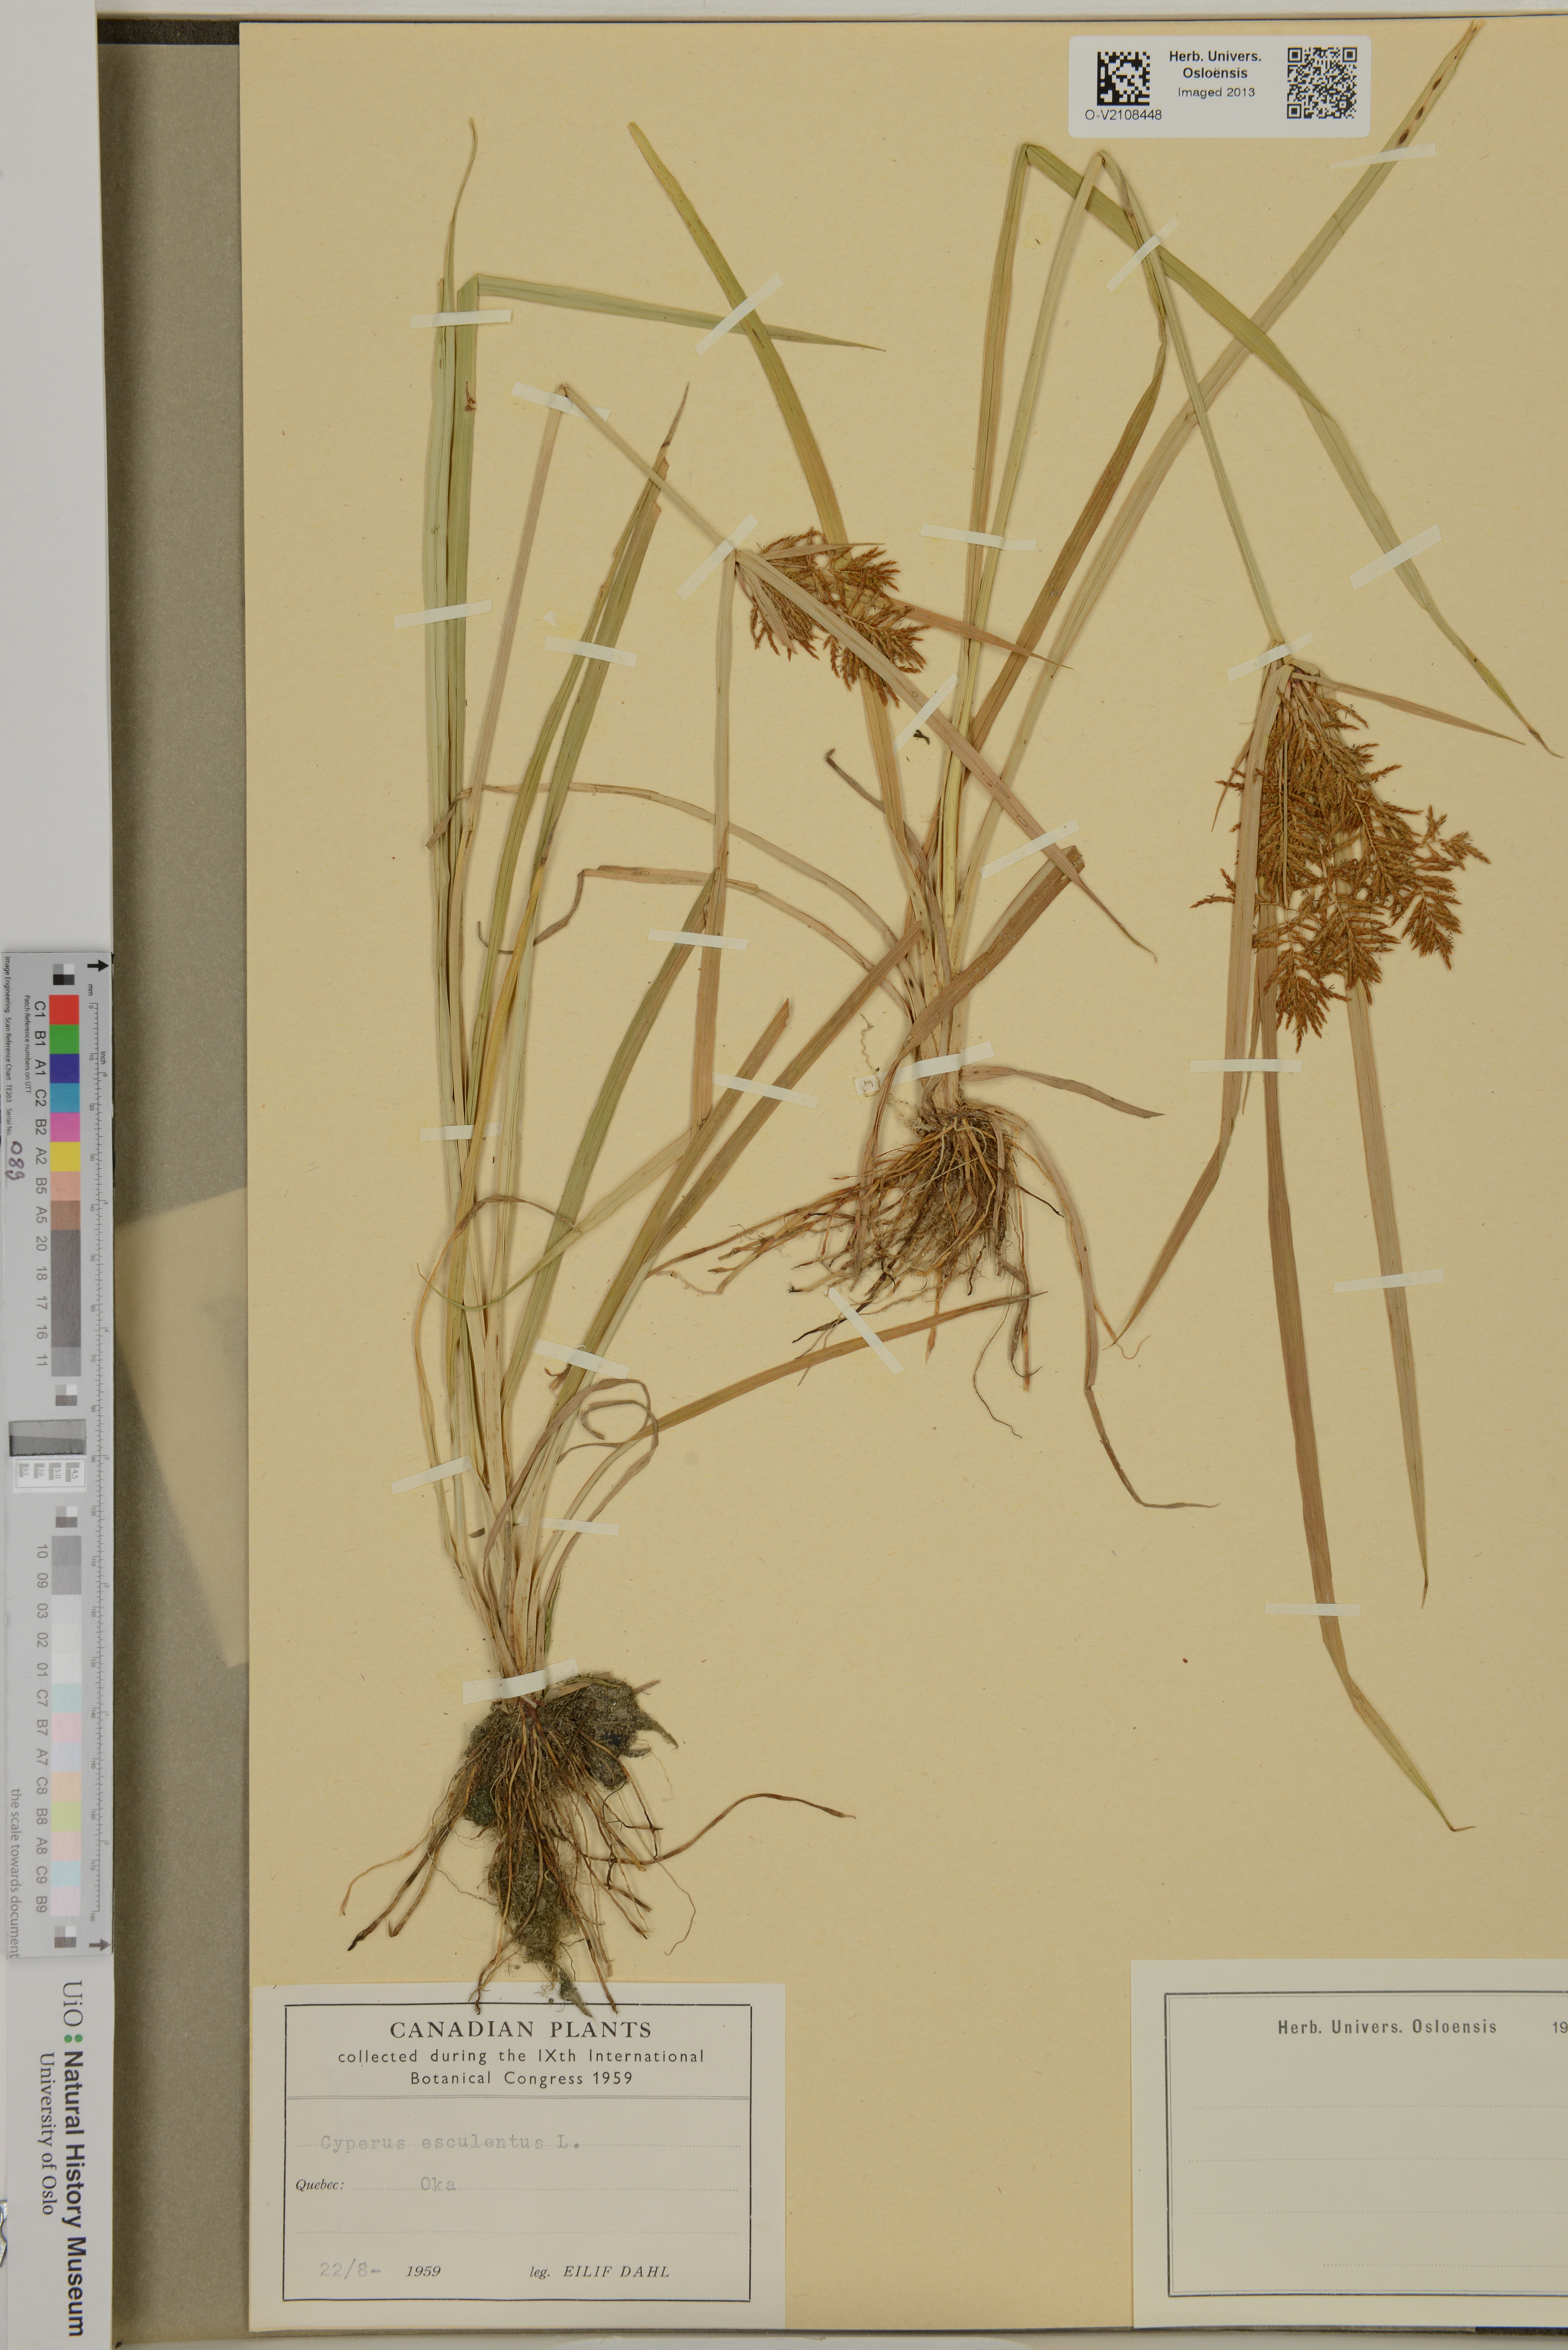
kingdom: Plantae
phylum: Tracheophyta
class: Liliopsida
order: Poales
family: Cyperaceae
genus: Cyperus
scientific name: Cyperus esculentus
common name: Yellow nutsedge
